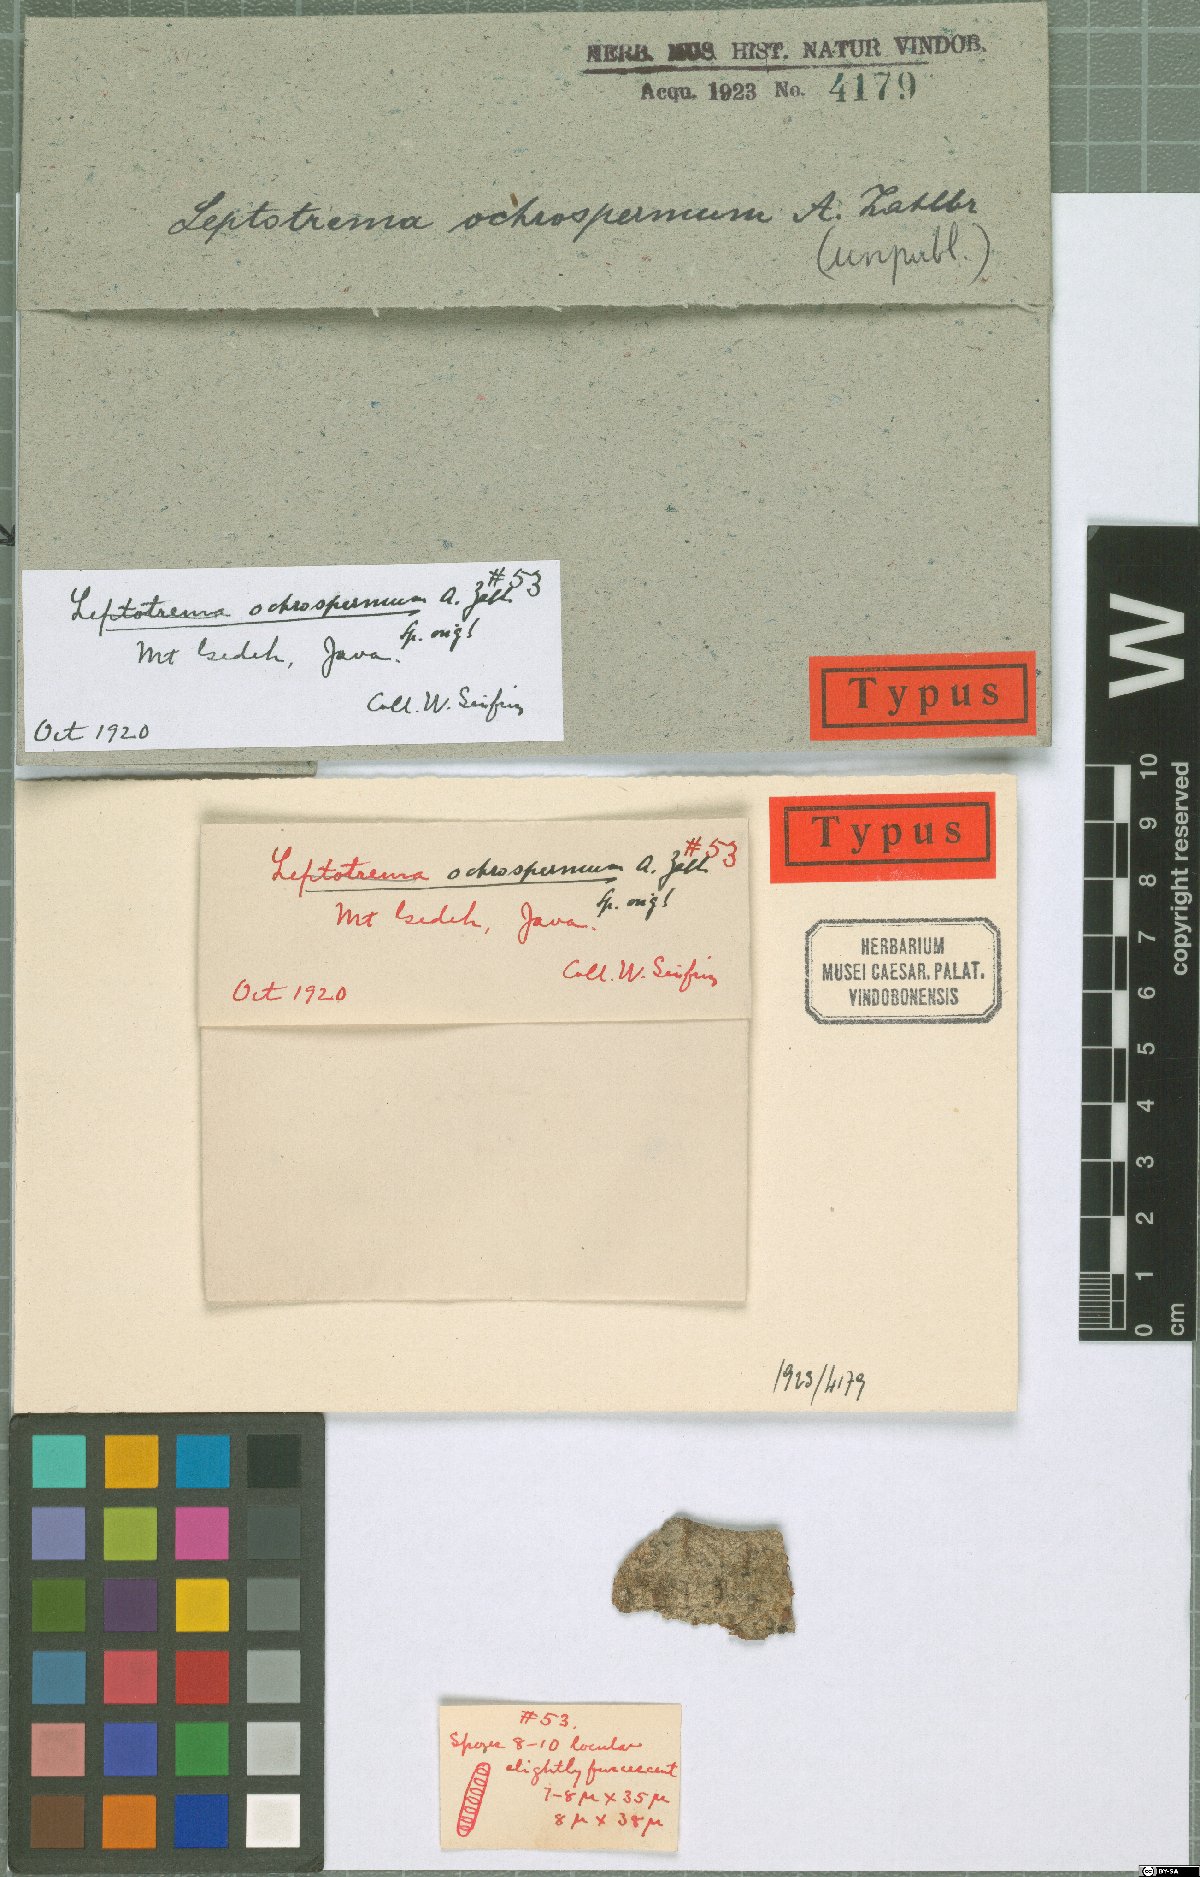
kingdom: Fungi
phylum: Ascomycota
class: Lecanoromycetes
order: Ostropales
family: Graphidaceae
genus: Leptotrema
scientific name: Leptotrema
